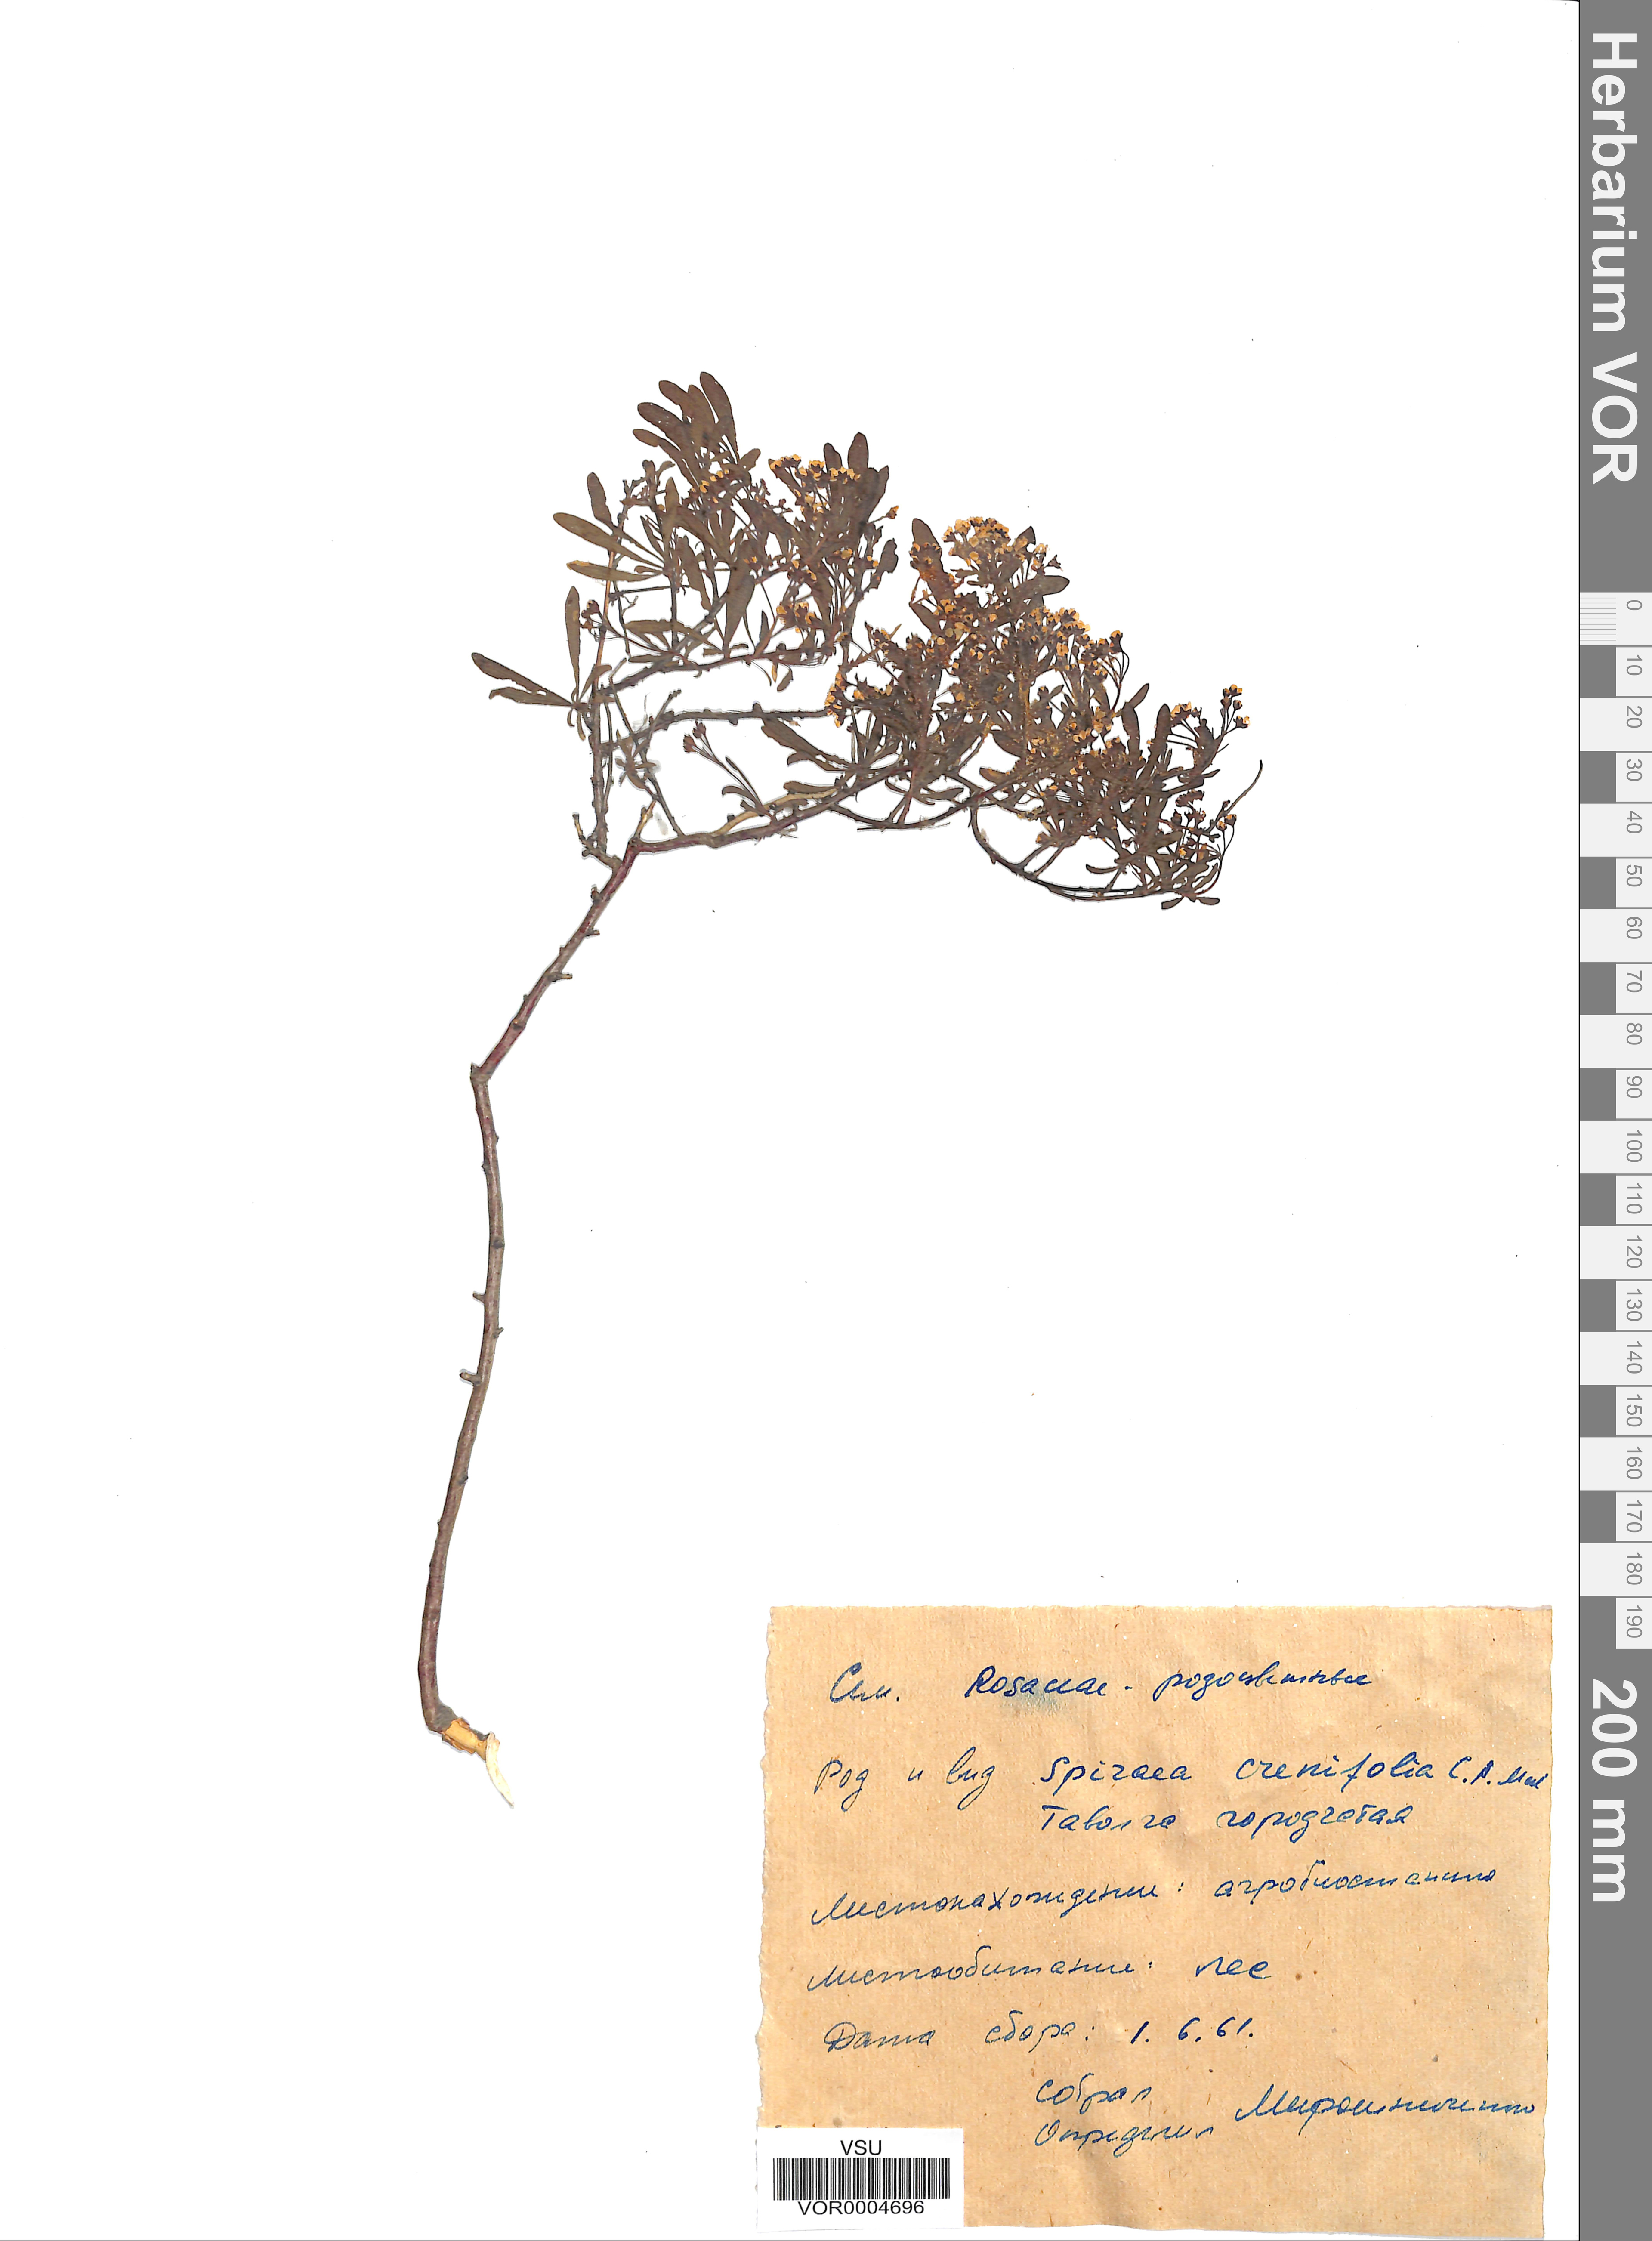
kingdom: Plantae
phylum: Tracheophyta
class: Magnoliopsida
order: Rosales
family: Rosaceae
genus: Spiraea
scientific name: Spiraea crenata
